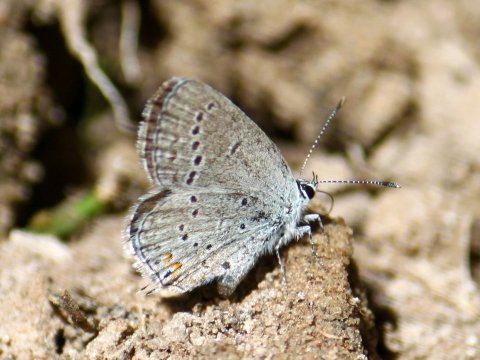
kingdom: Animalia
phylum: Arthropoda
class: Insecta
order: Lepidoptera
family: Lycaenidae
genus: Elkalyce
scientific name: Elkalyce amyntula
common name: Western Tailed-Blue
